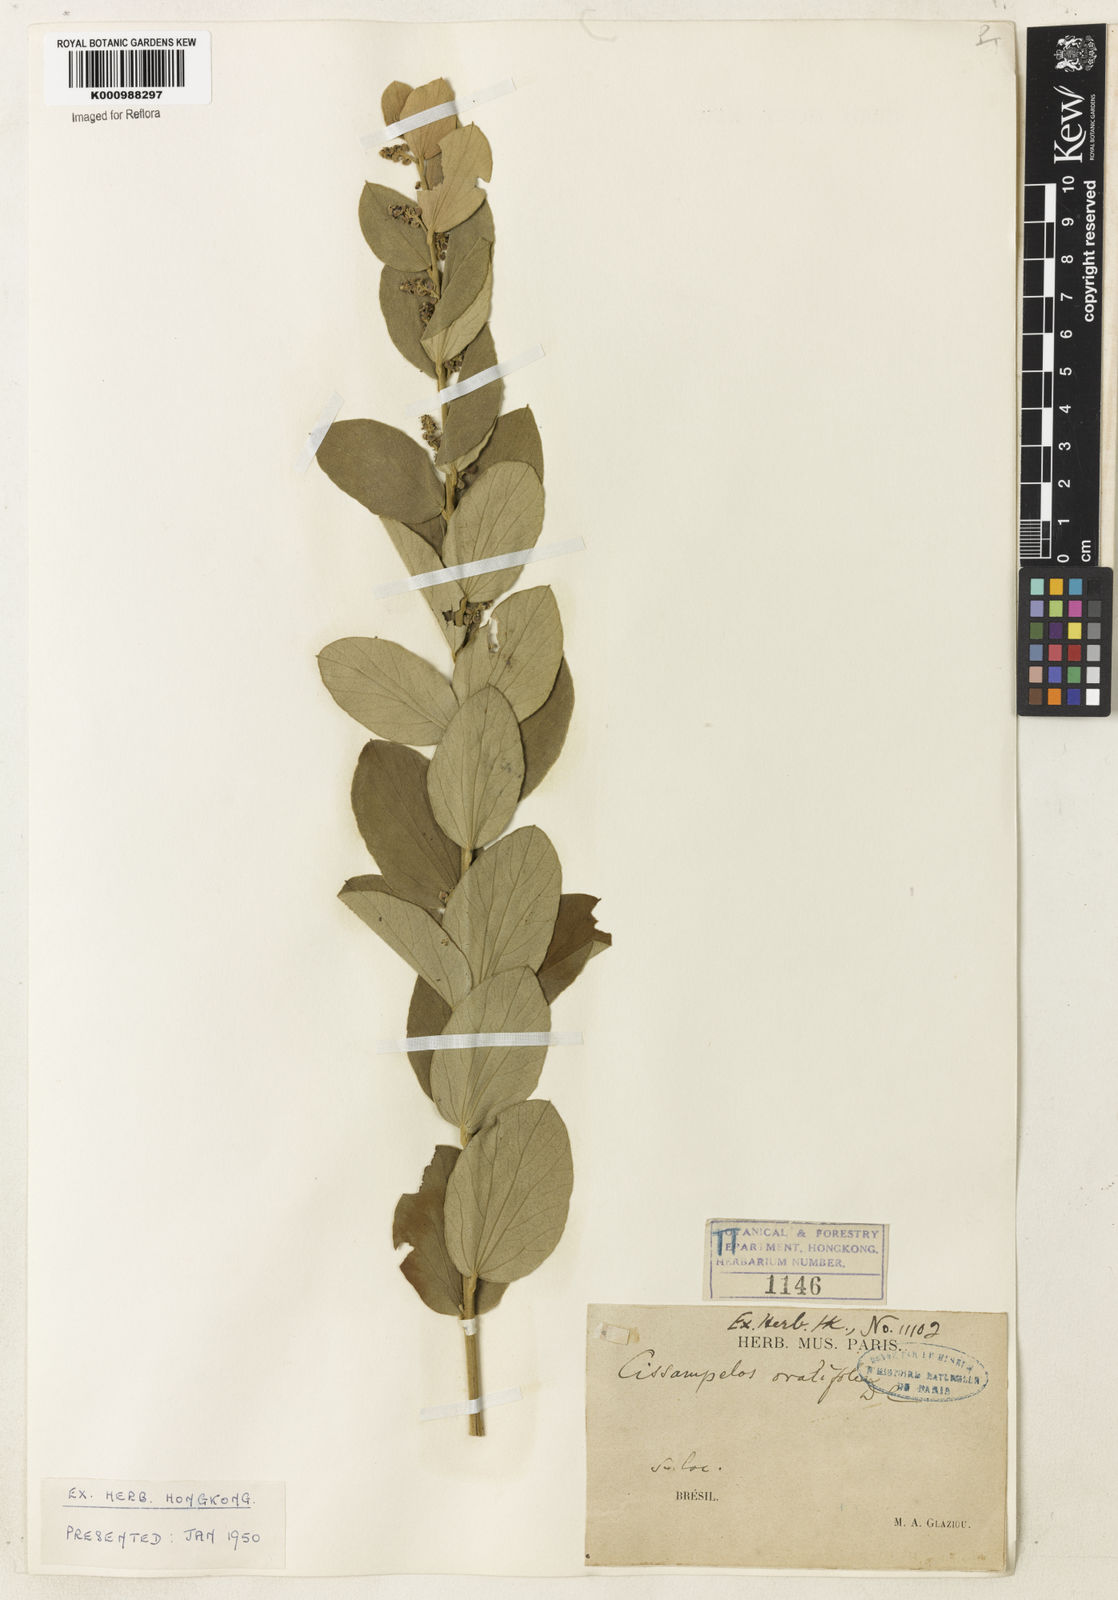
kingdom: Plantae
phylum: Tracheophyta
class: Magnoliopsida
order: Ranunculales
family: Menispermaceae
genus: Cissampelos
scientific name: Cissampelos ovalifolia
